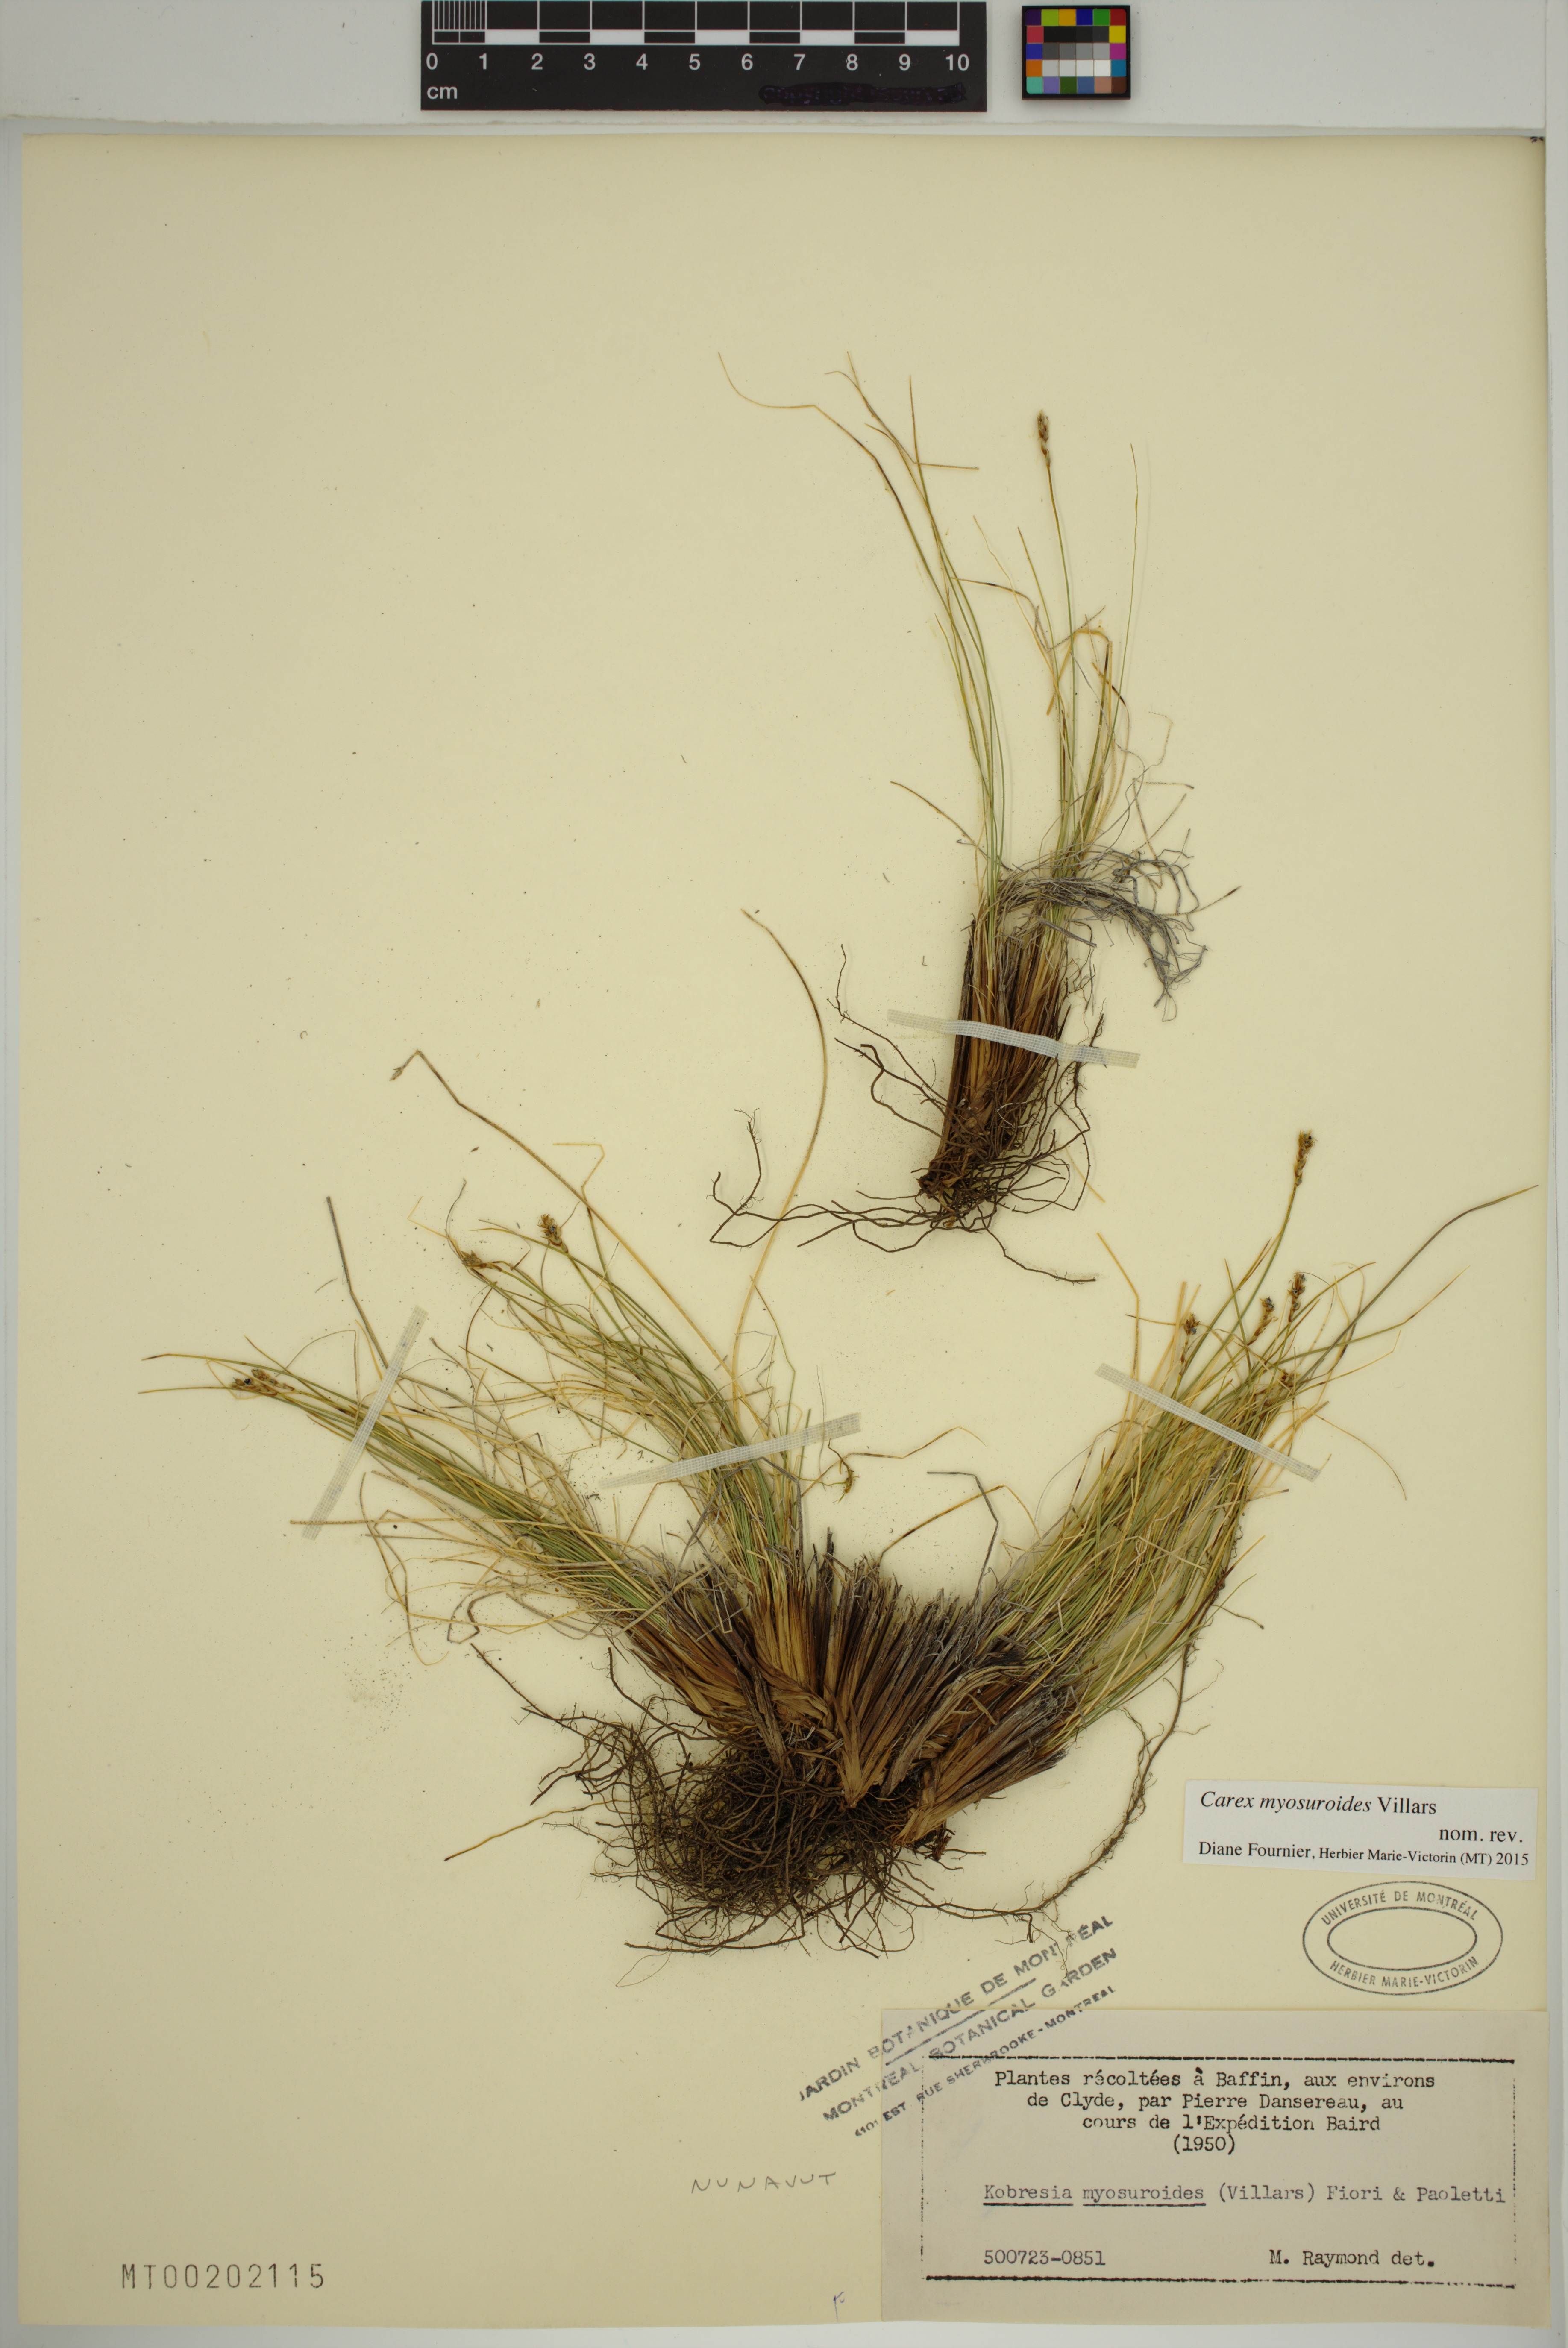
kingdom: Plantae
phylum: Tracheophyta
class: Liliopsida
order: Poales
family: Cyperaceae
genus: Carex
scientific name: Carex myosuroides
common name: Bellard's bog sedge
